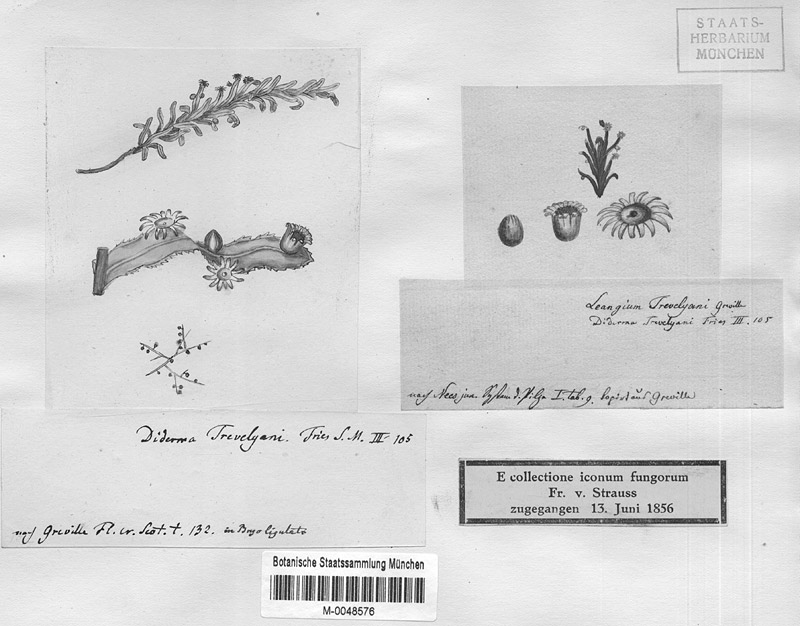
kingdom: Protozoa
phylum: Mycetozoa
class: Myxomycetes
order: Physarales
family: Didymiaceae
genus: Diderma
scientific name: Diderma trevelyani
